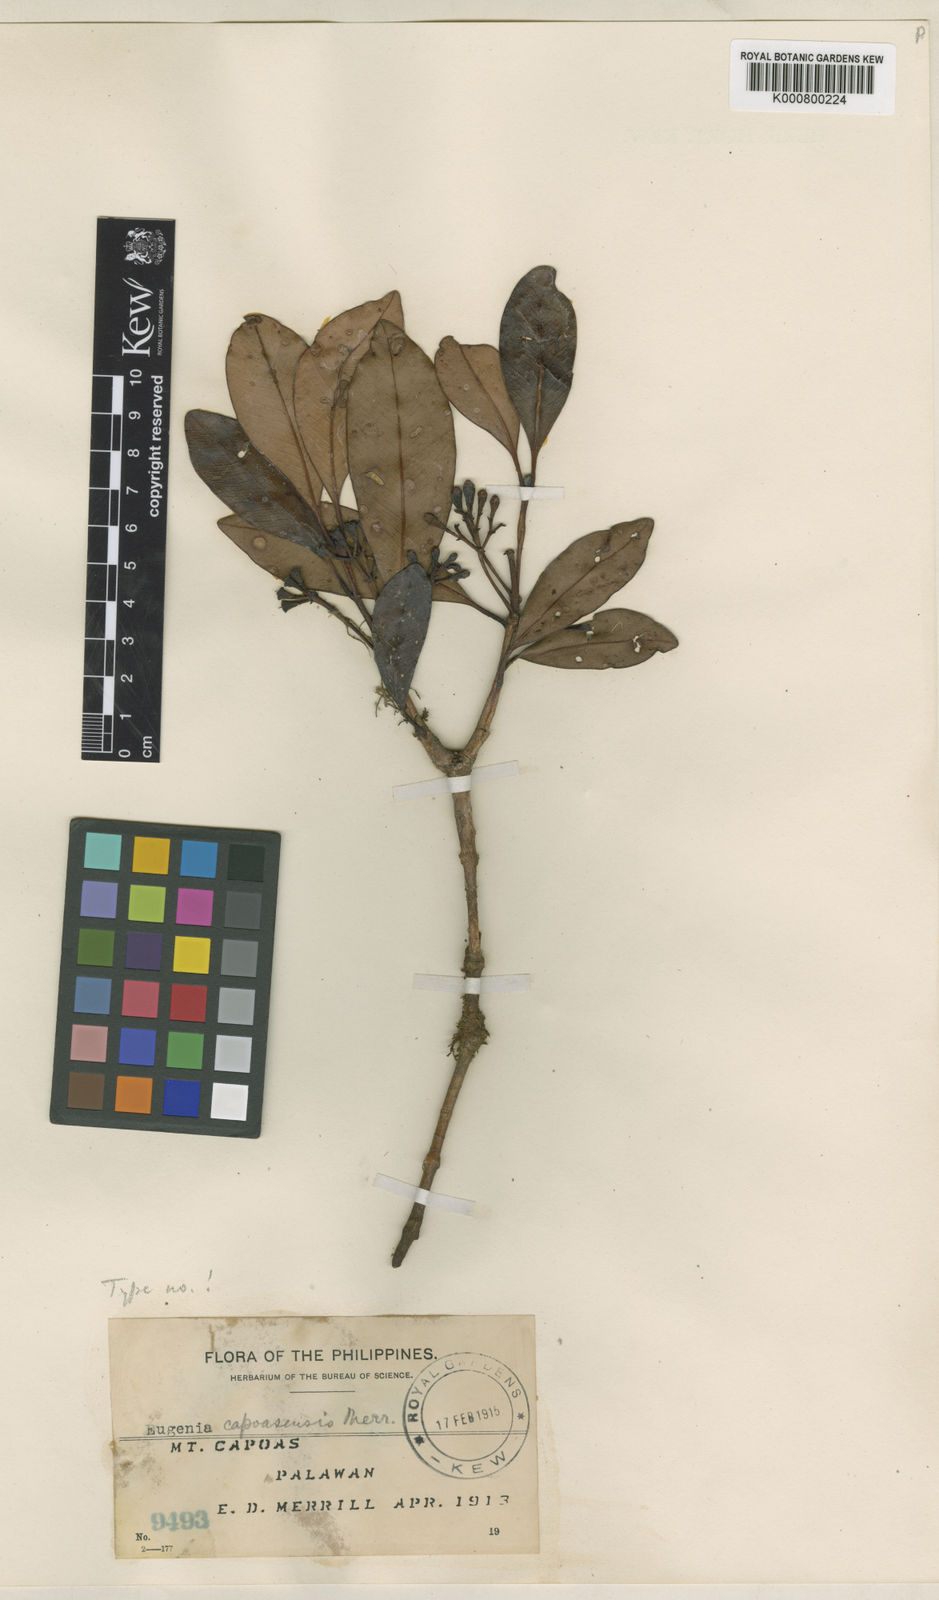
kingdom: Plantae
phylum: Tracheophyta
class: Magnoliopsida
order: Myrtales
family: Myrtaceae
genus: Syzygium
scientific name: Syzygium capoasense
